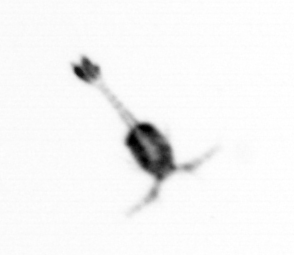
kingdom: Animalia
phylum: Arthropoda
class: Copepoda
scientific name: Copepoda
